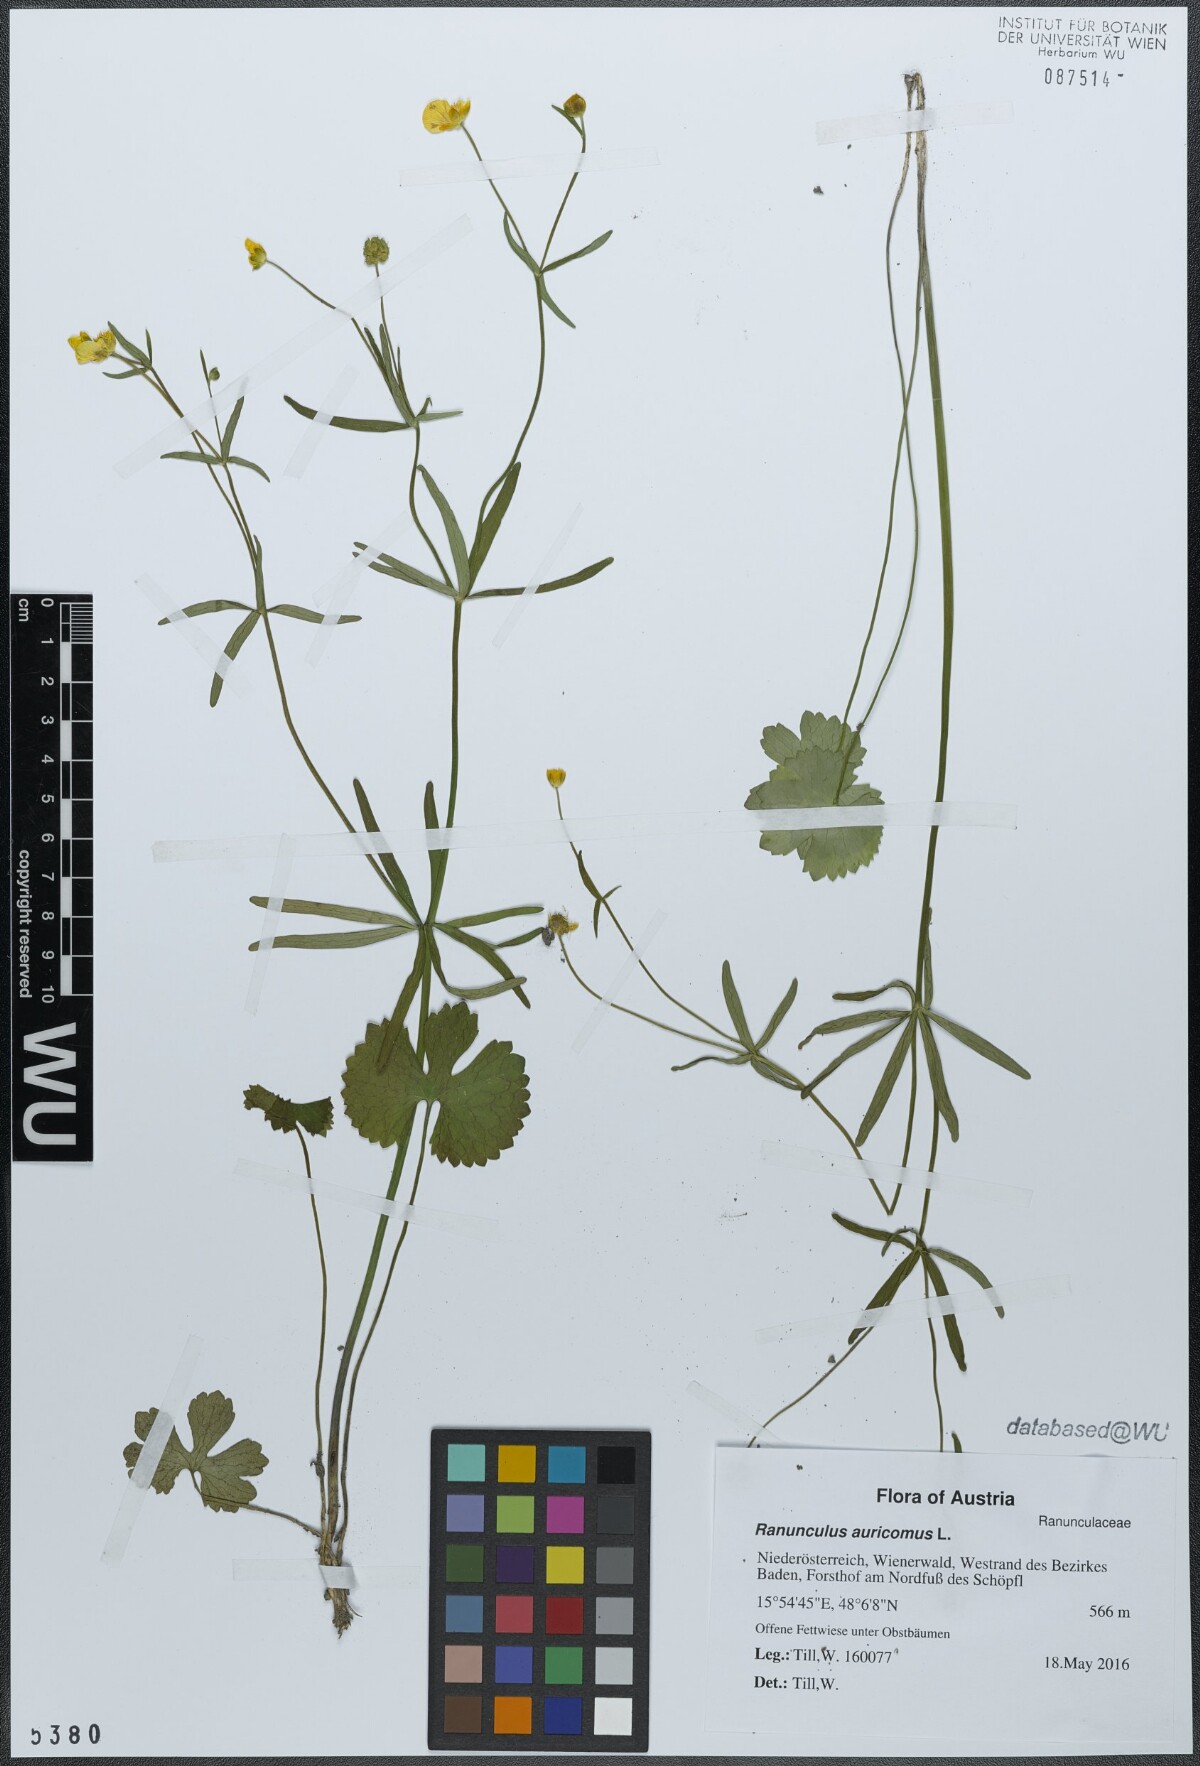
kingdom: Plantae
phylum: Tracheophyta
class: Magnoliopsida
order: Ranunculales
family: Ranunculaceae
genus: Ranunculus
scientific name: Ranunculus auricomus
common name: Goldilocks buttercup
